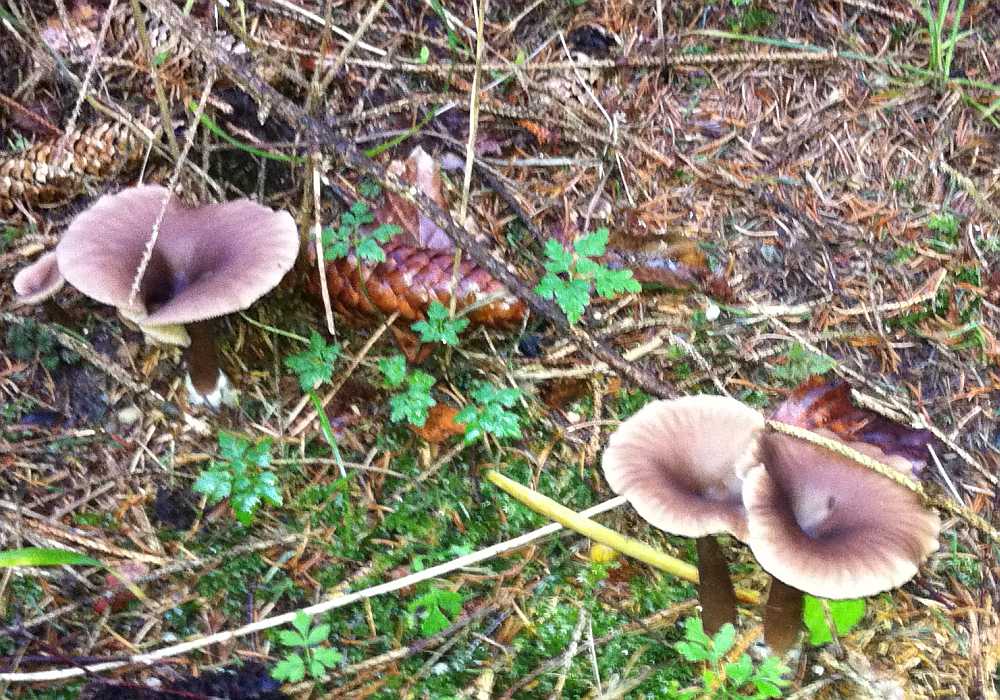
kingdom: Fungi
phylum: Basidiomycota
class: Agaricomycetes
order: Agaricales
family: Pseudoclitocybaceae
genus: Pseudoclitocybe
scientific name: Pseudoclitocybe cyathiformis
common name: almindelig bægertragthat
